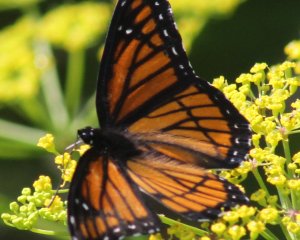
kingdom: Animalia
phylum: Arthropoda
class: Insecta
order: Lepidoptera
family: Nymphalidae
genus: Limenitis
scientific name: Limenitis archippus
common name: Viceroy
